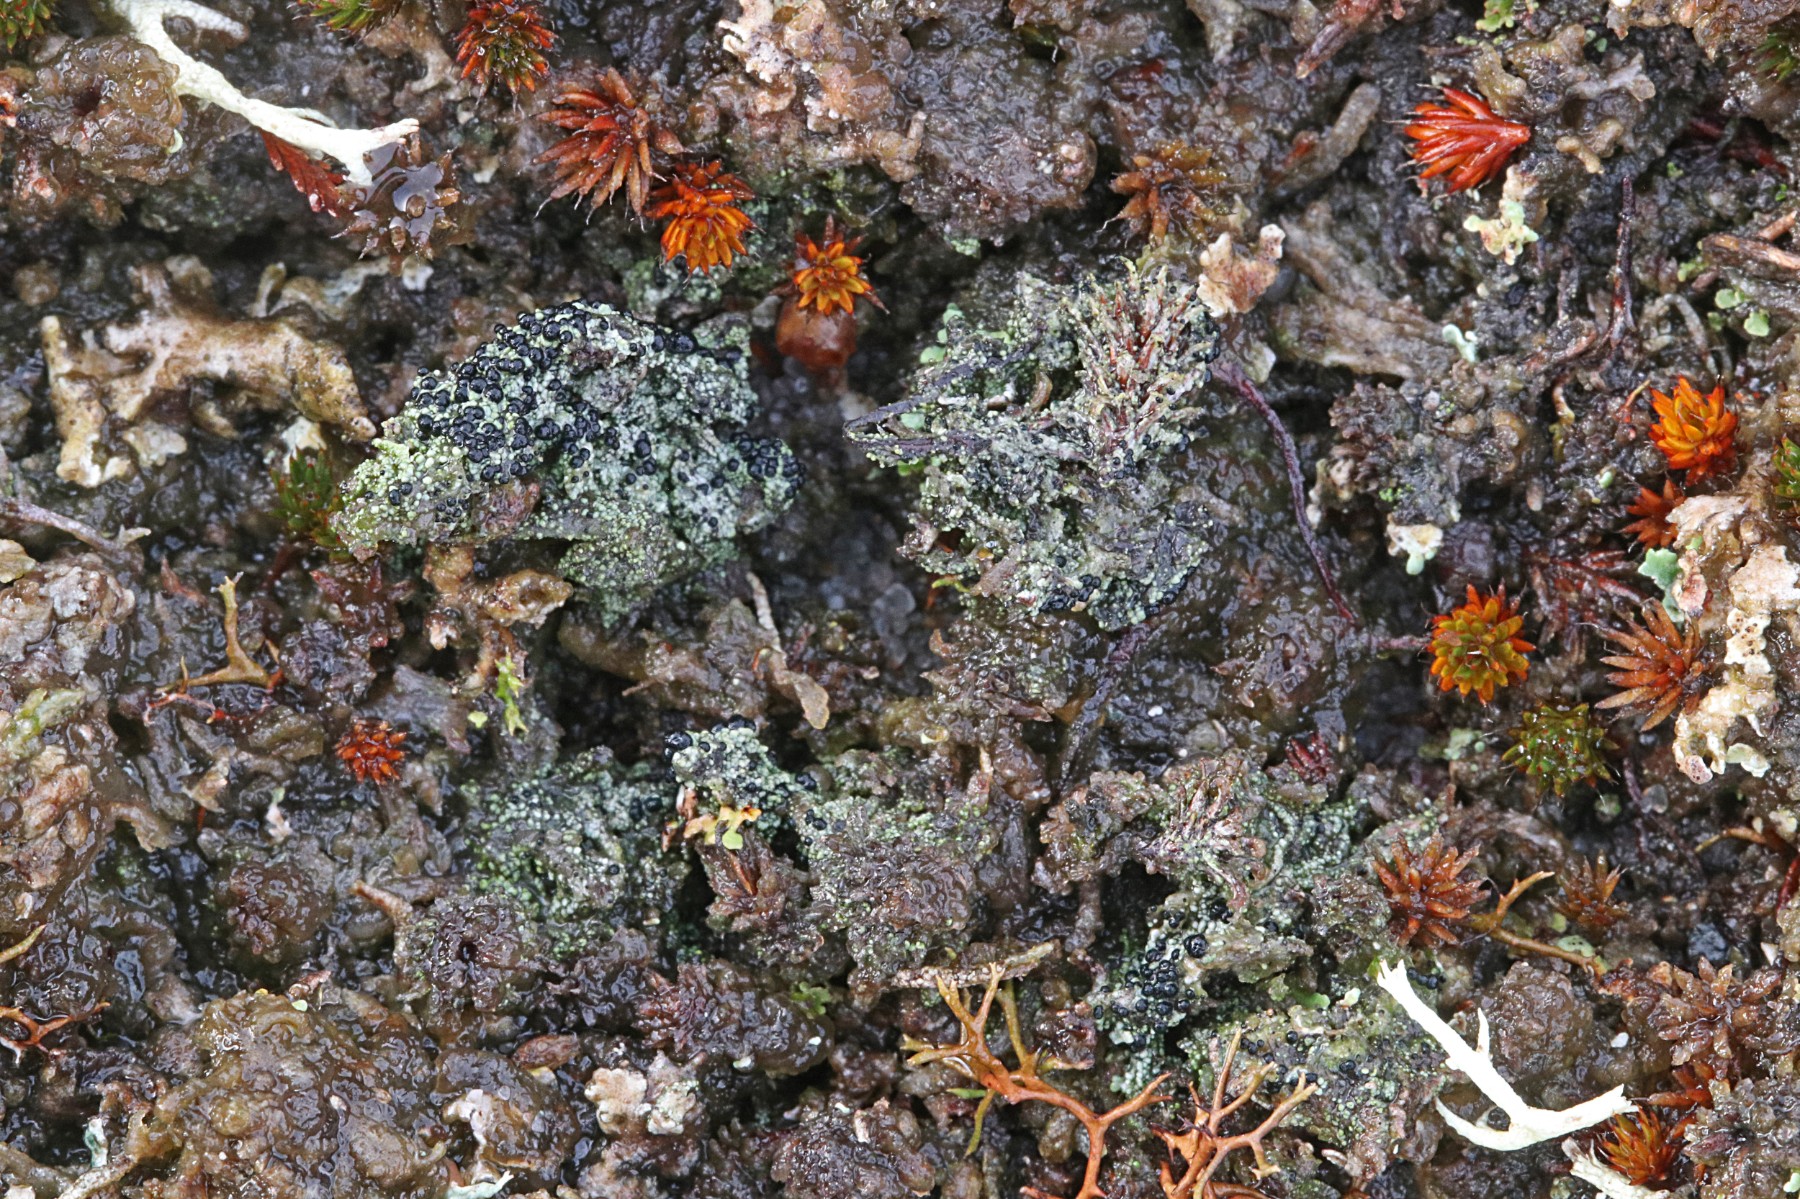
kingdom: Fungi
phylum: Ascomycota
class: Lecanoromycetes
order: Lecanorales
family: Byssolomataceae
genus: Micarea
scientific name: Micarea lignaria
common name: tørve-knaplav
